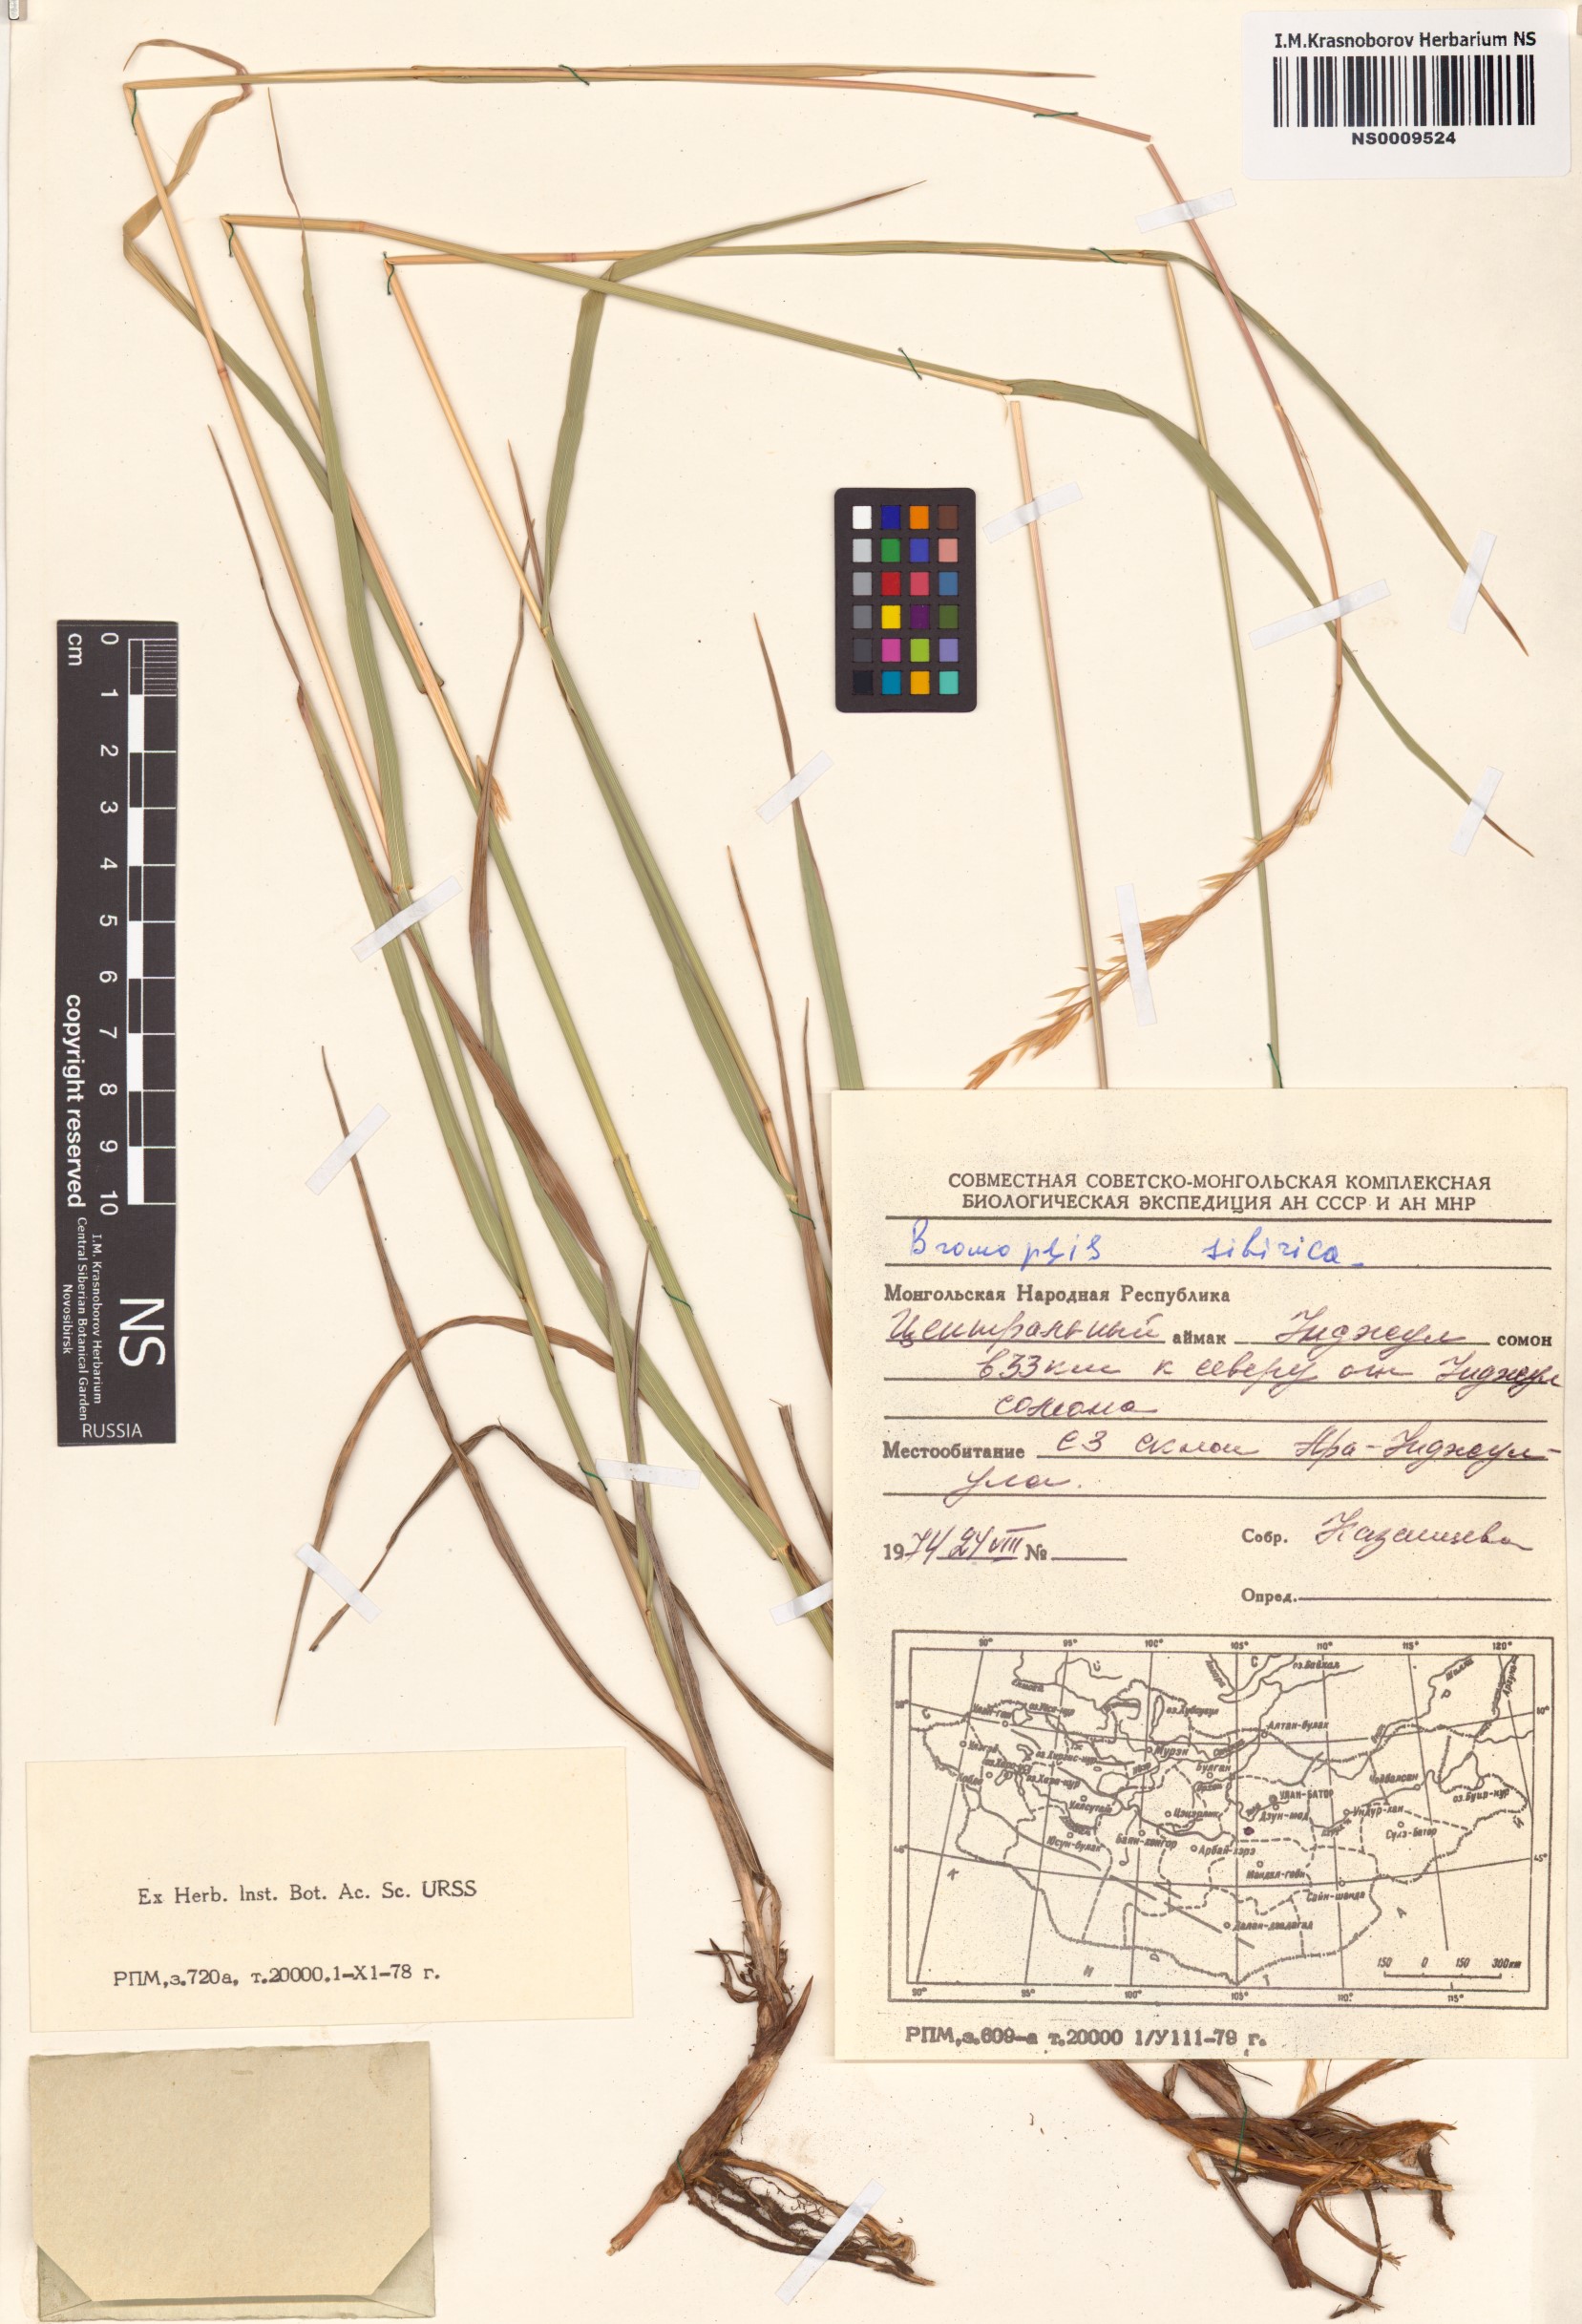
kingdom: Plantae
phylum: Tracheophyta
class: Liliopsida
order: Poales
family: Poaceae
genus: Bromus
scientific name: Bromus pumpellianus
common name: Pumpelly's brome
